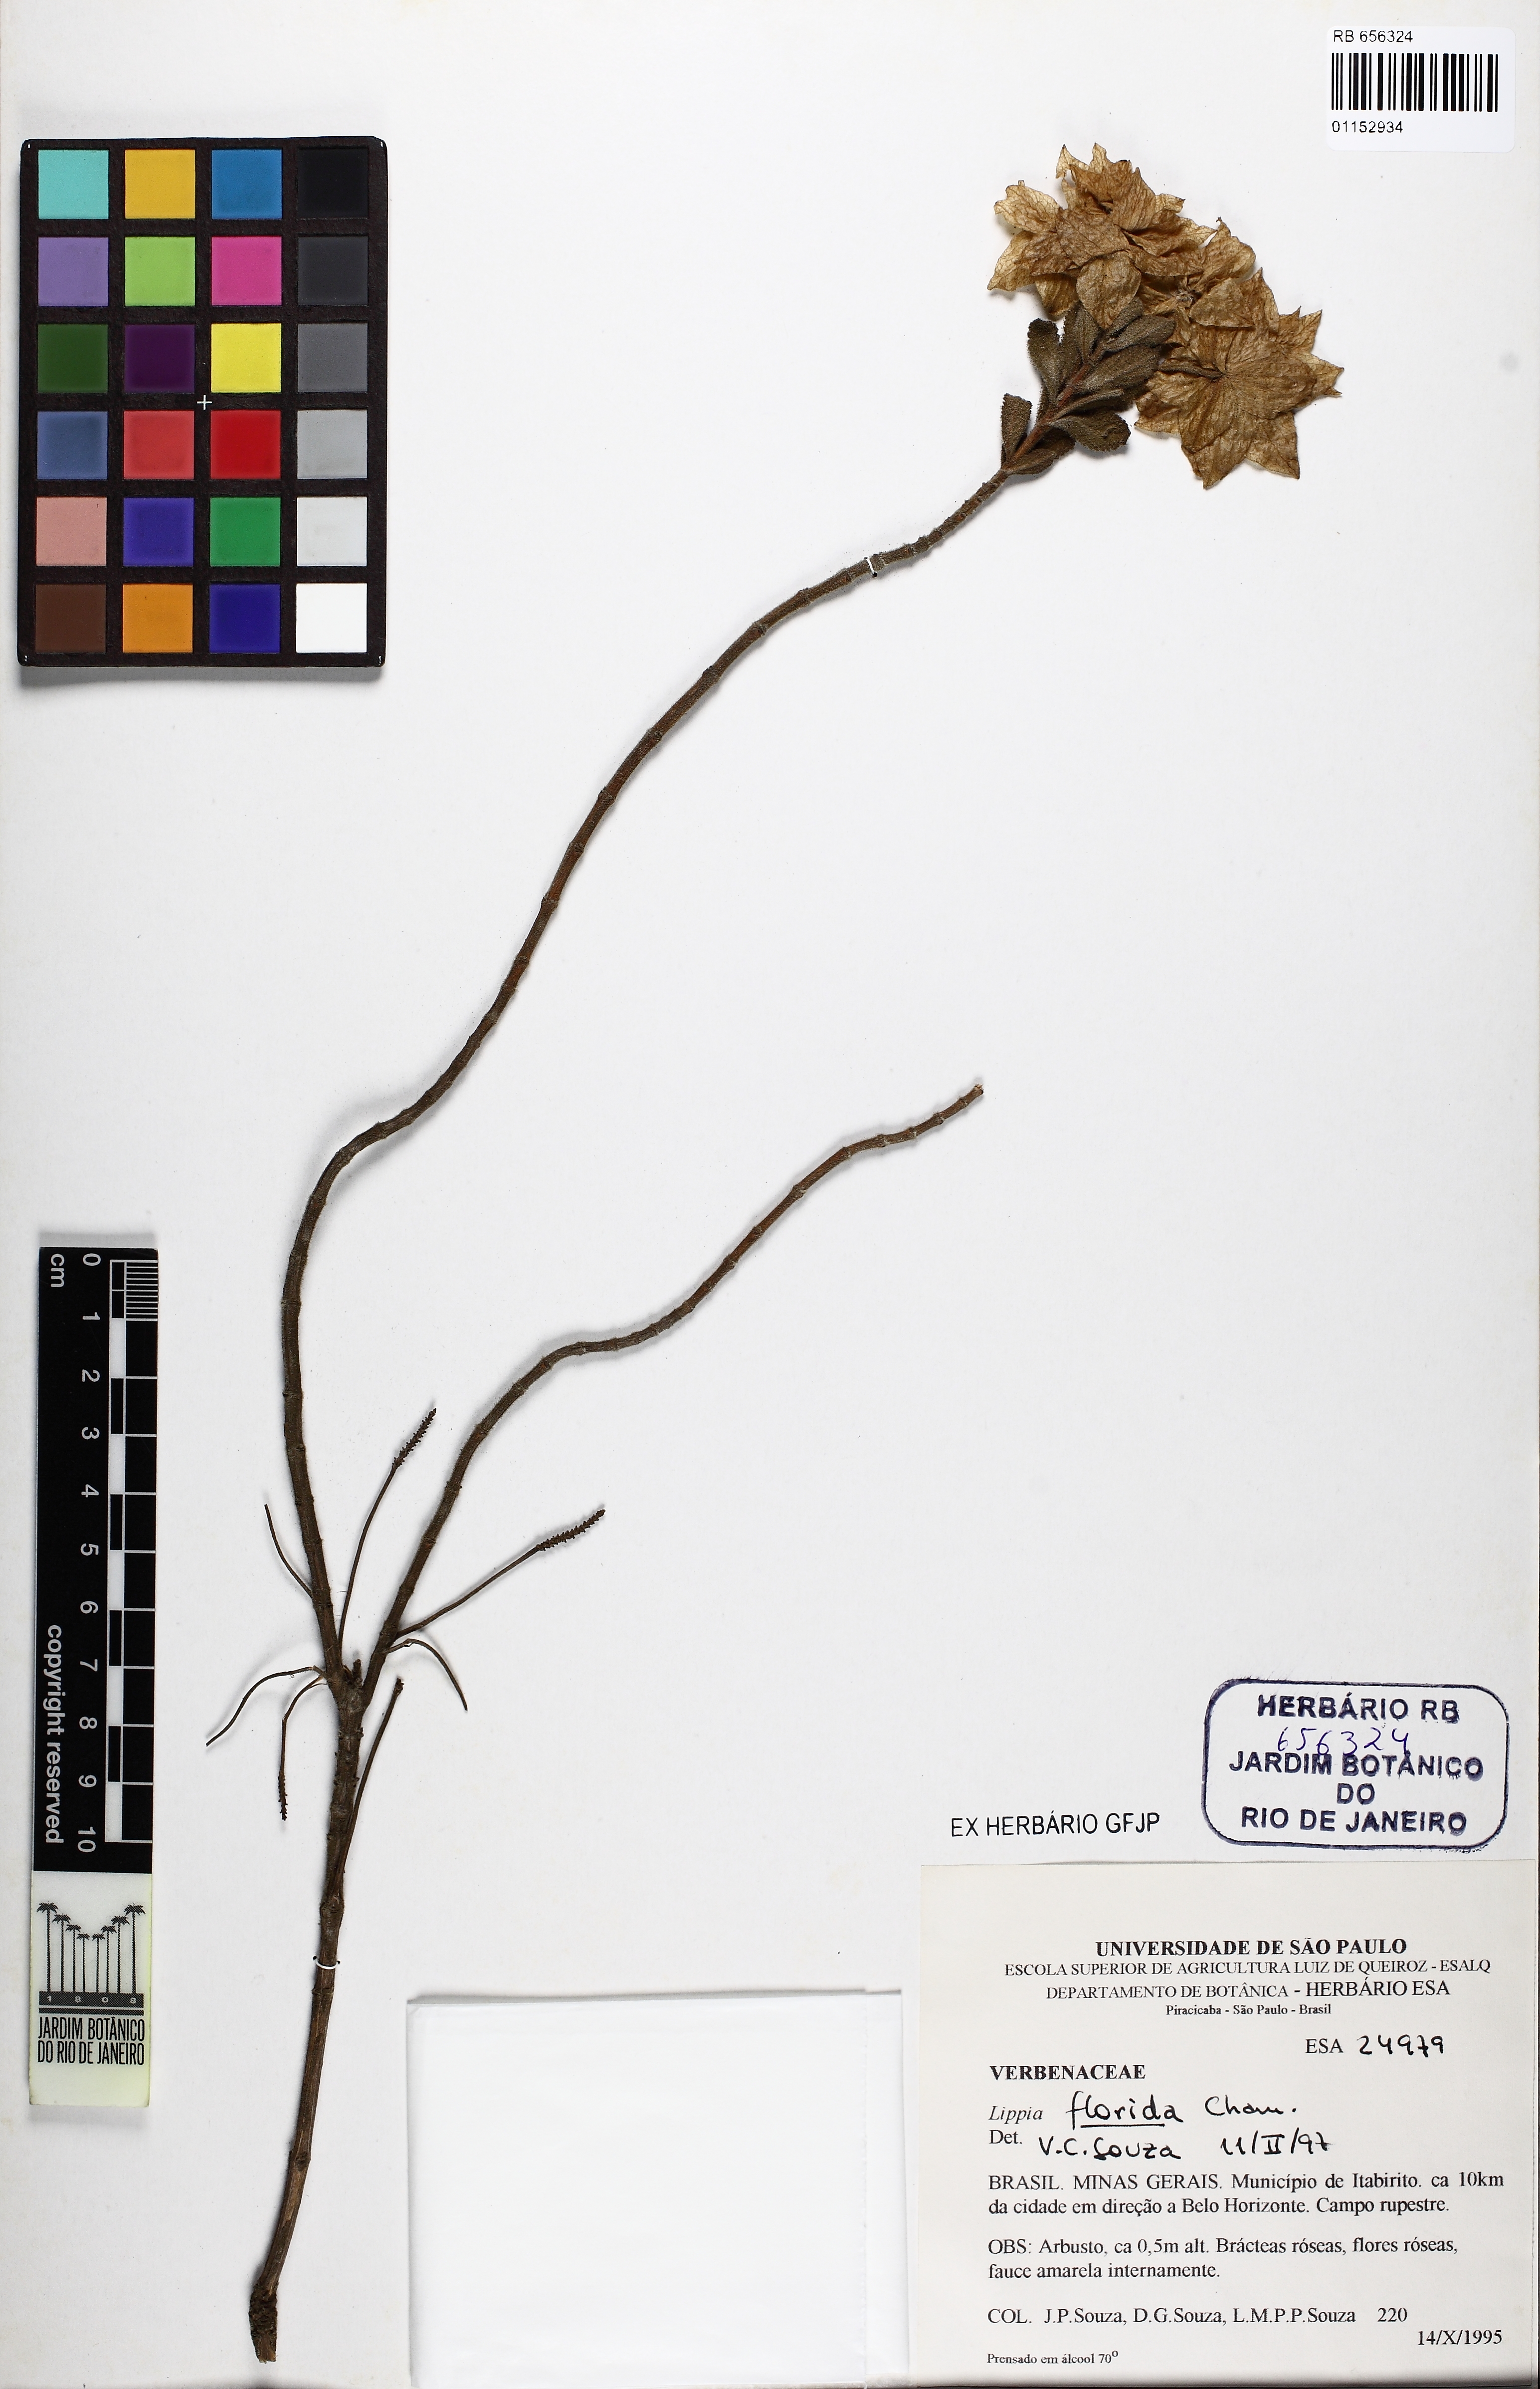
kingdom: Plantae
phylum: Tracheophyta
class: Magnoliopsida
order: Lamiales
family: Verbenaceae
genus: Lippia
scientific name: Lippia florida
